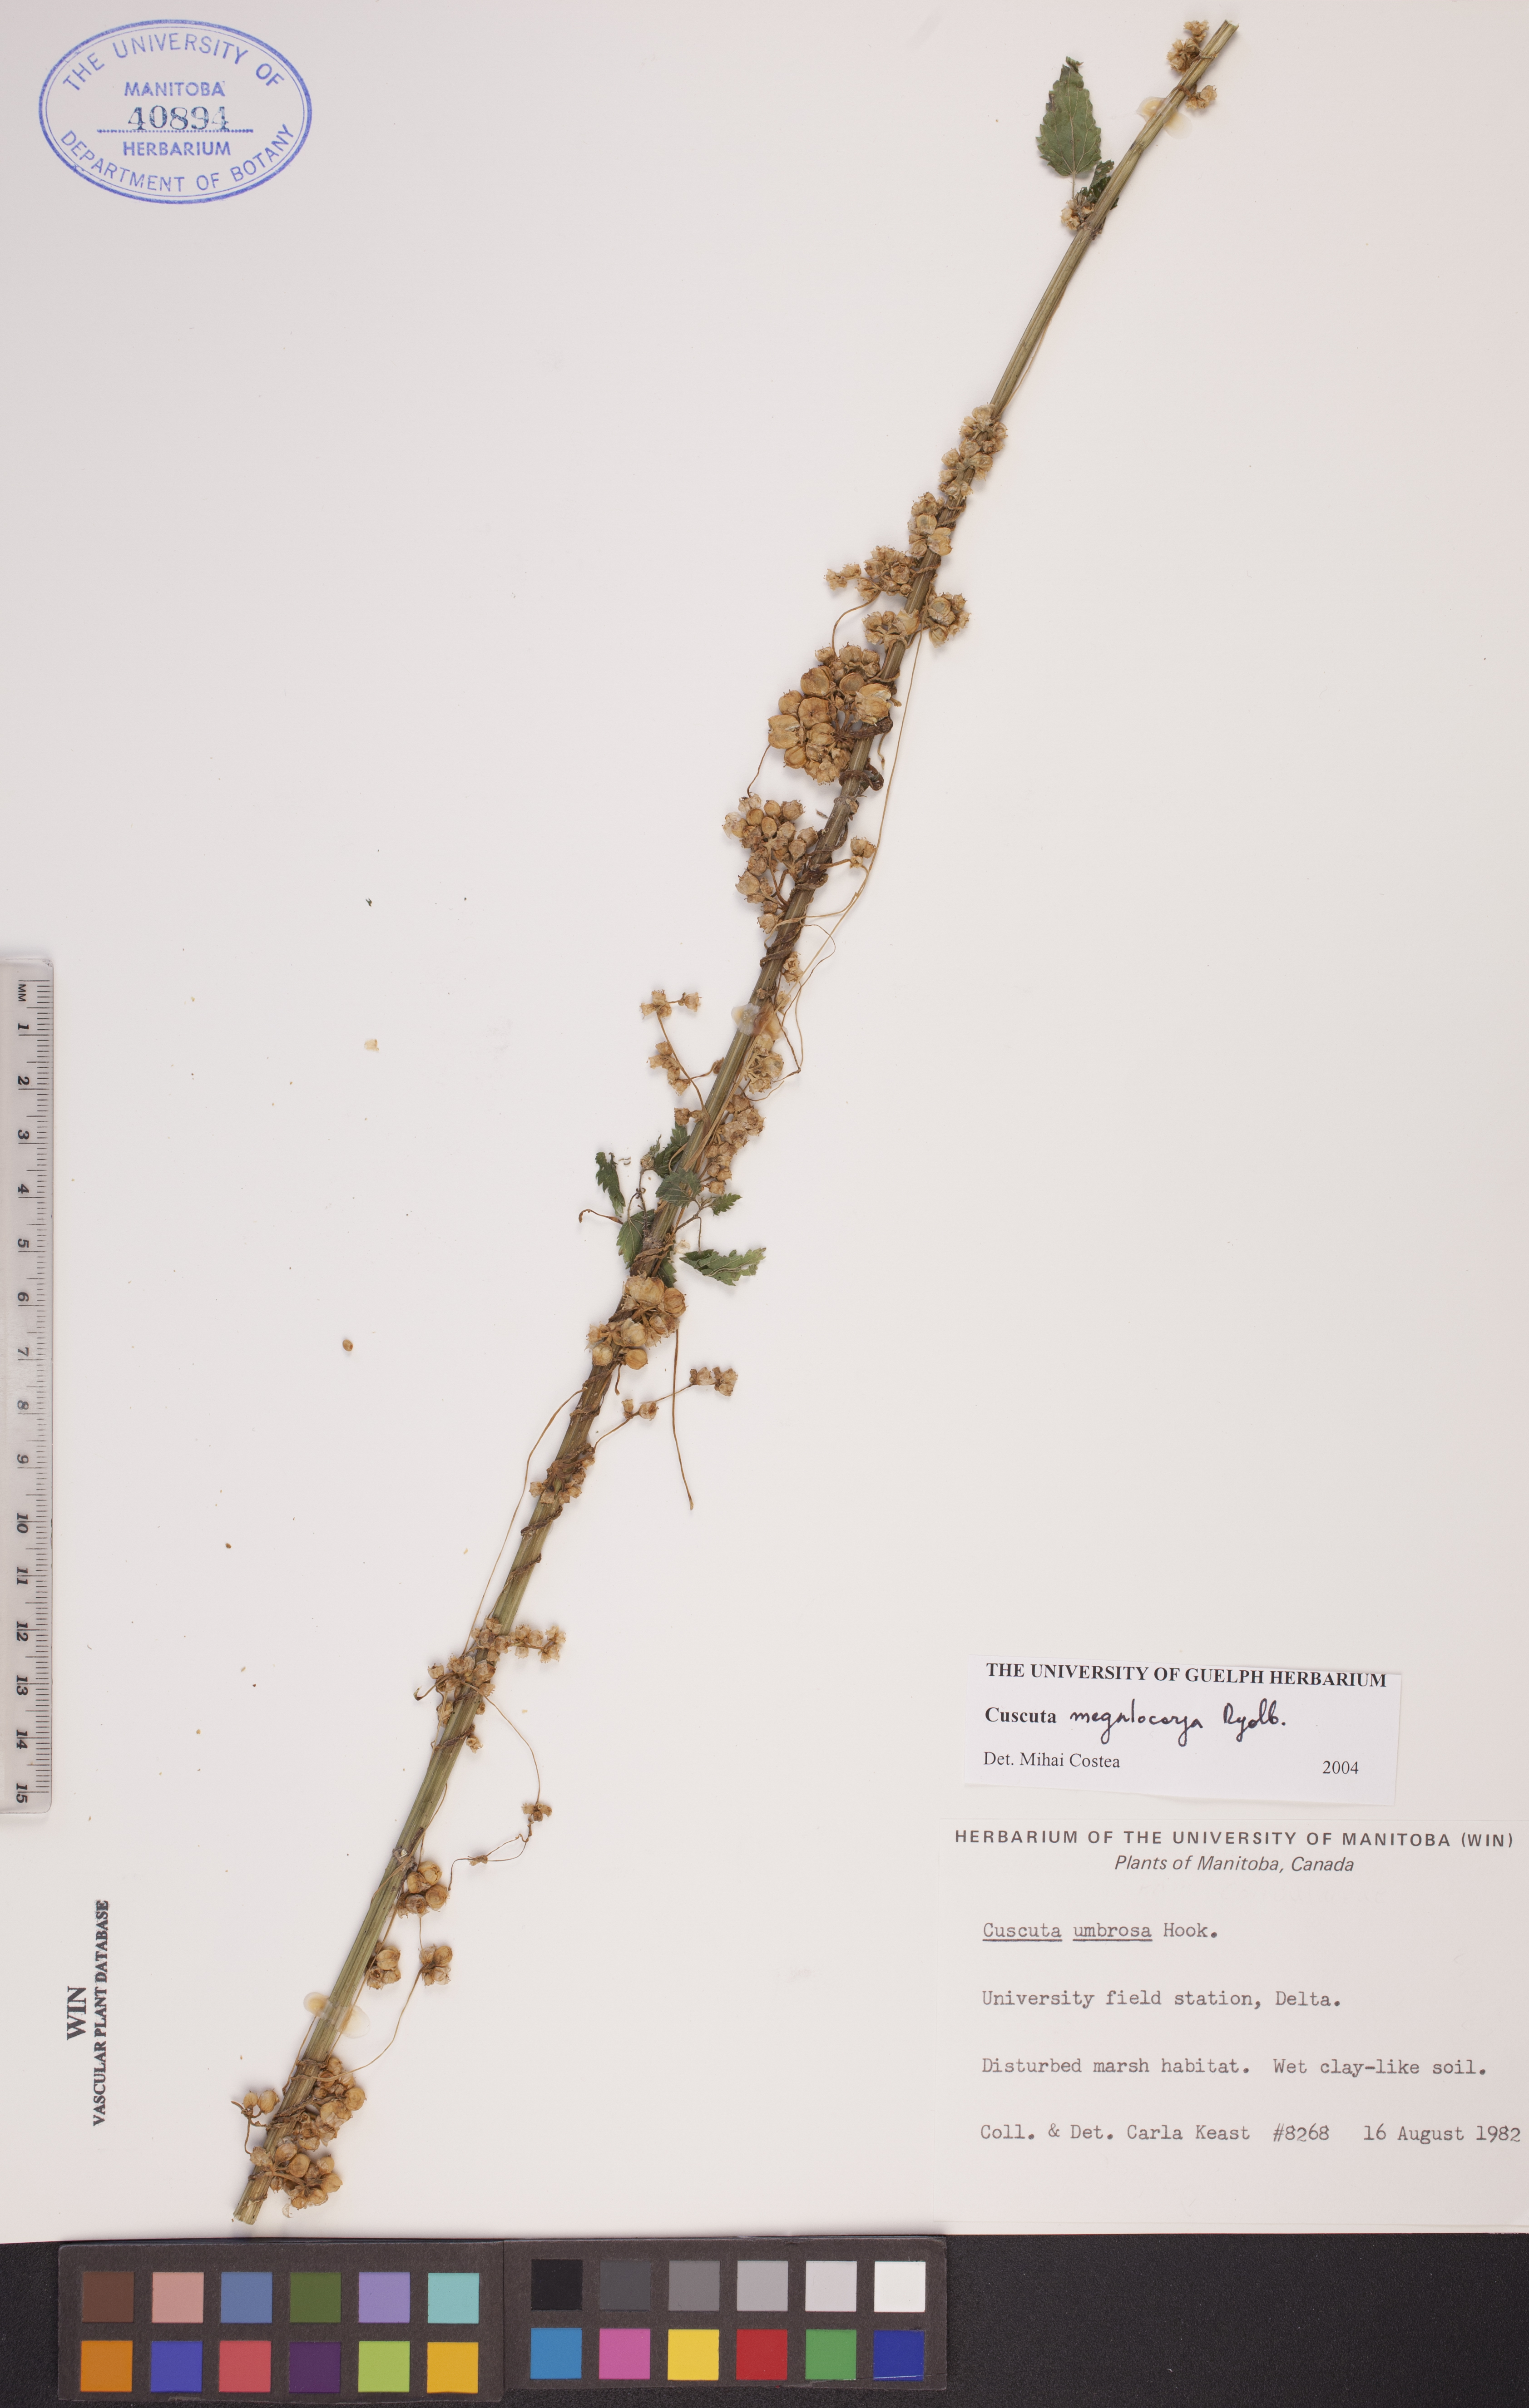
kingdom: Plantae
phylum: Tracheophyta
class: Magnoliopsida
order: Solanales
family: Convolvulaceae
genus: Cuscuta
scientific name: Cuscuta umbrosa
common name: Bigfruit dodder
